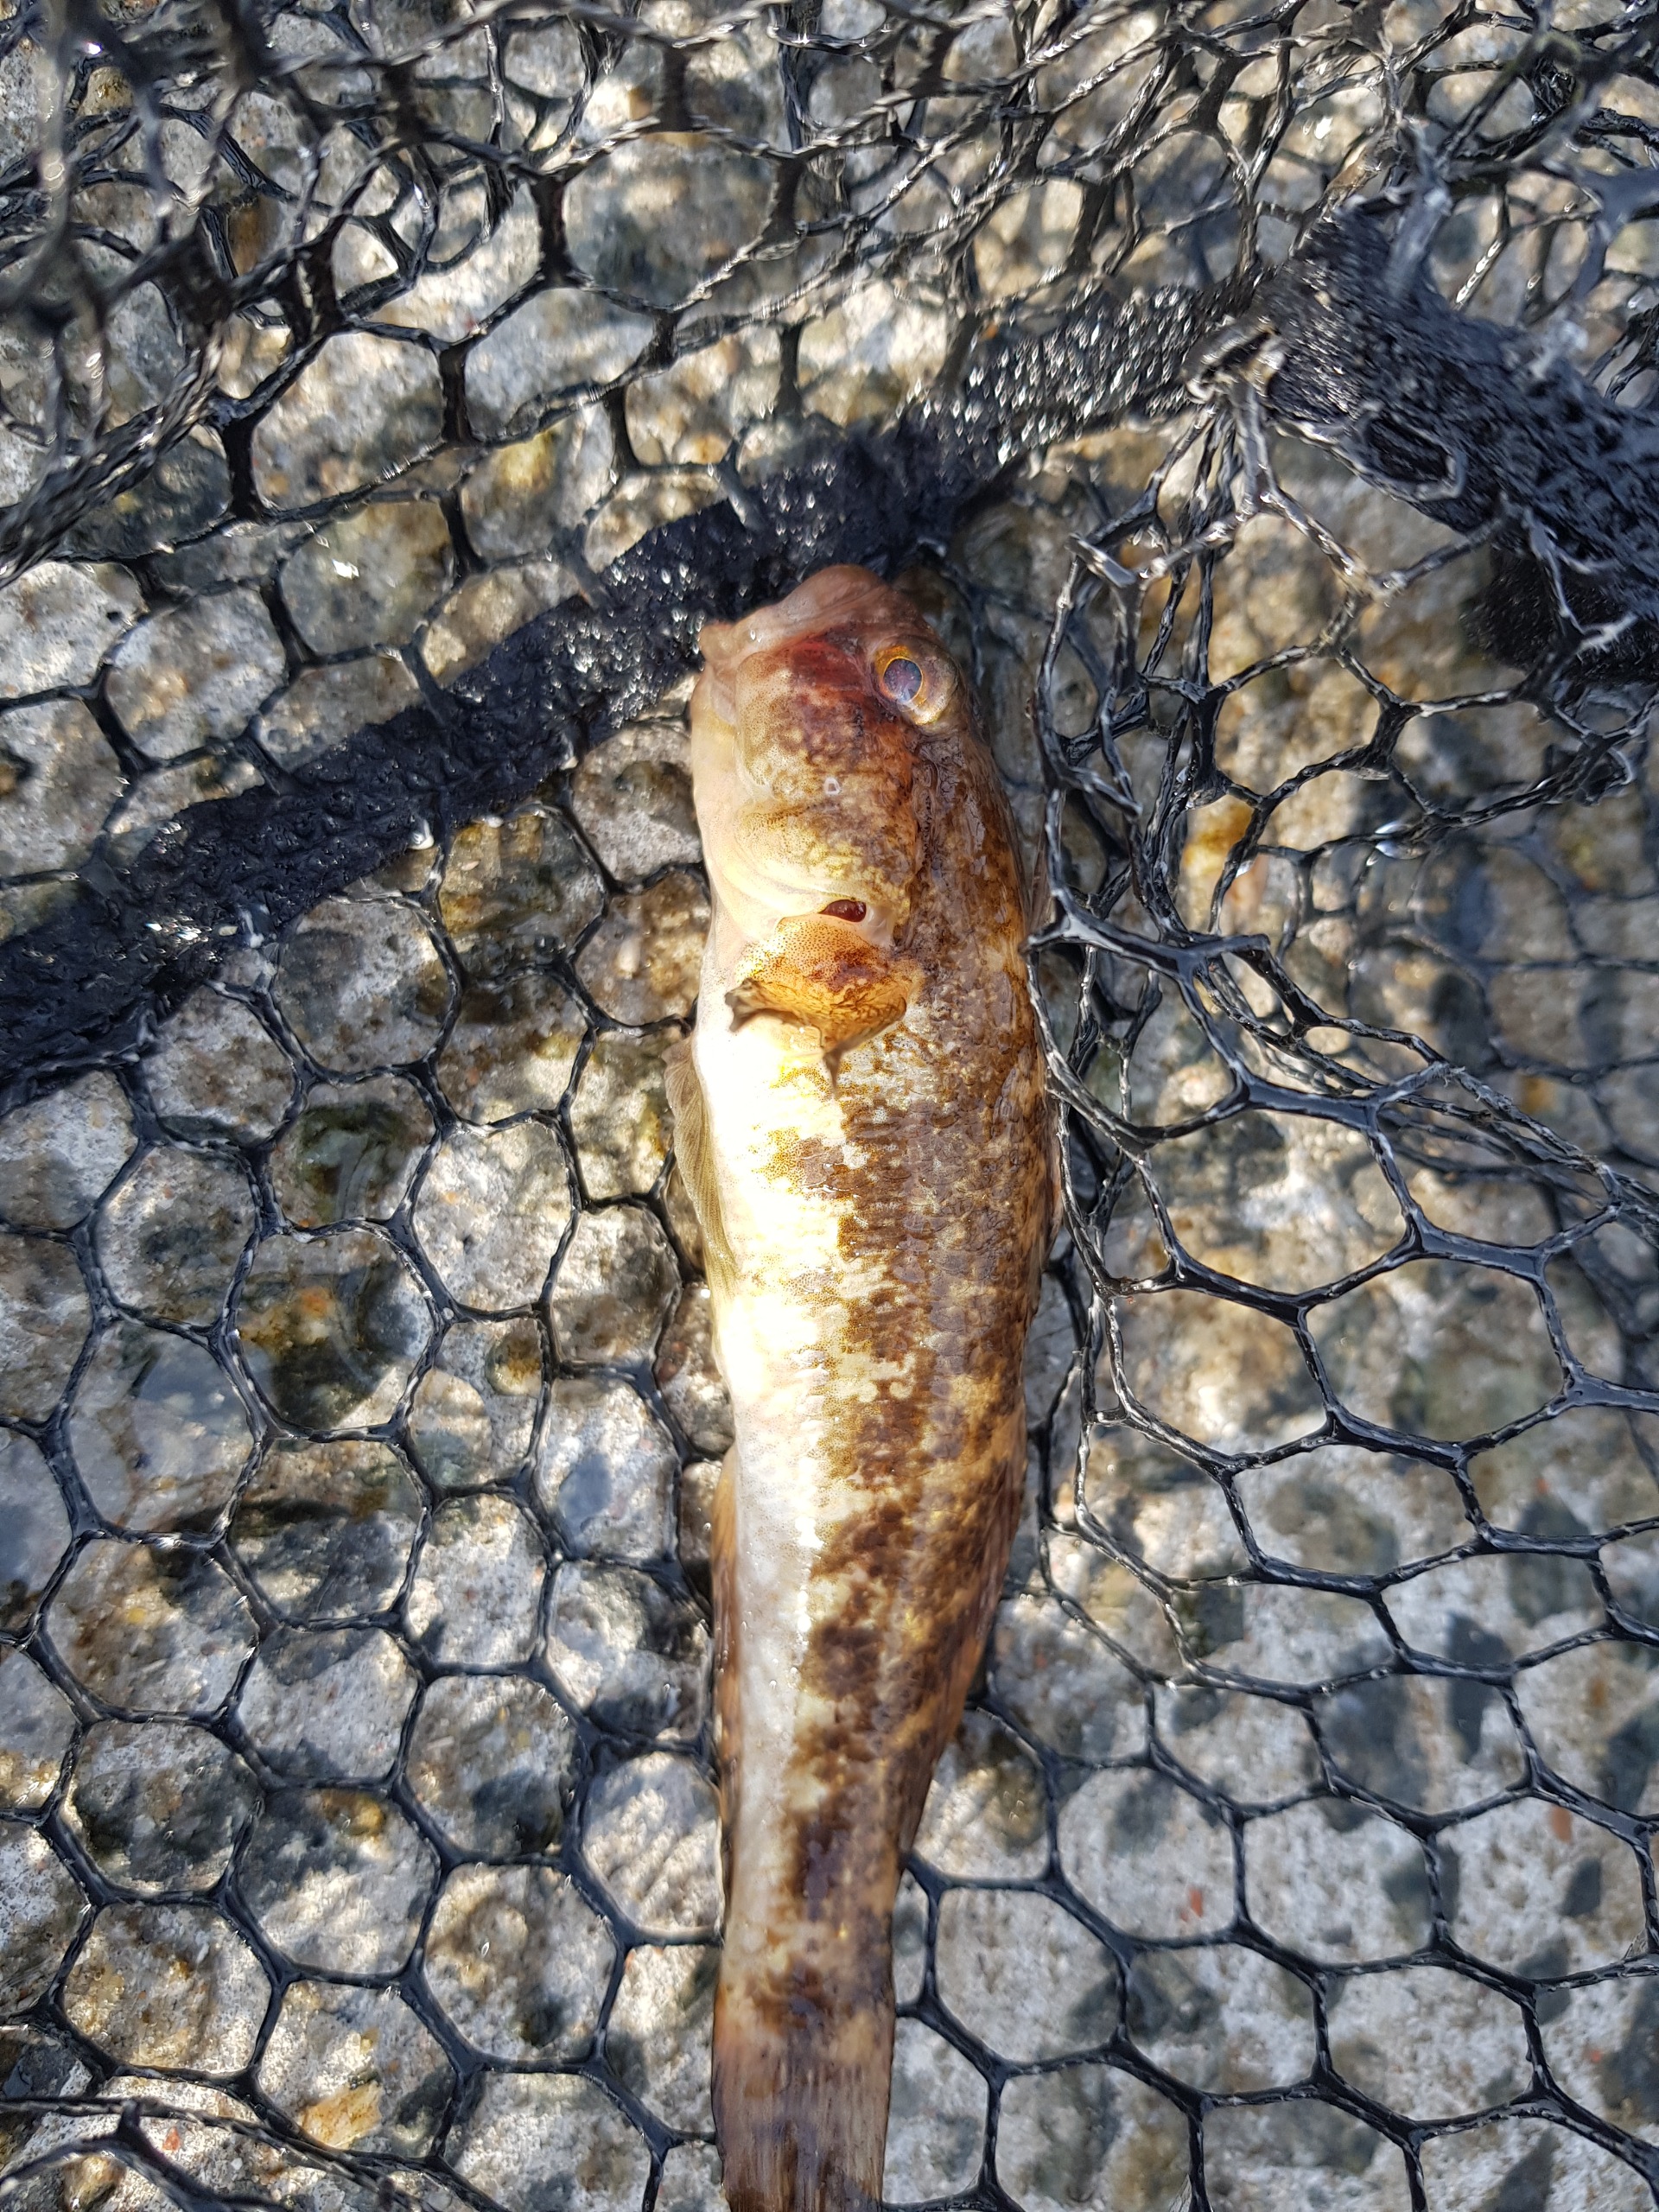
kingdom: Animalia
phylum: Chordata
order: Perciformes
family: Gobiidae
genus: Gobius
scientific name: Gobius niger
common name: Sortkutling
